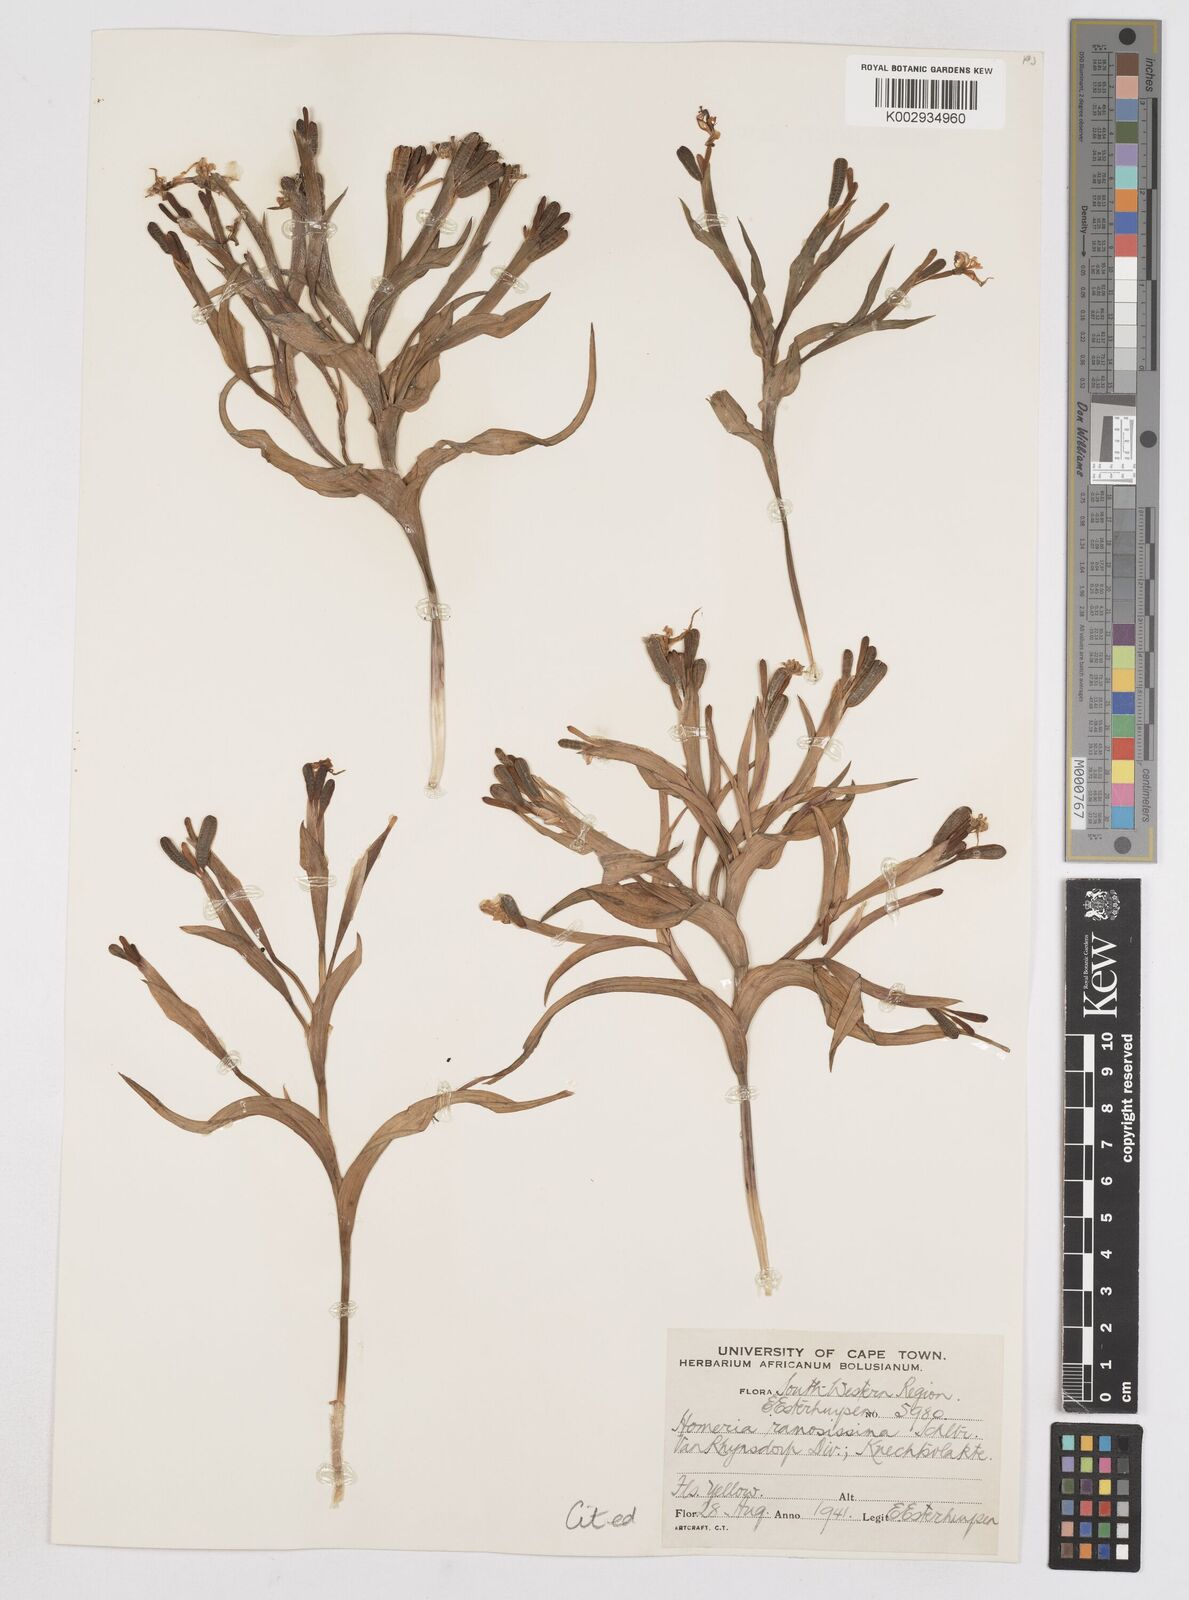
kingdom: Plantae
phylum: Tracheophyta
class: Liliopsida
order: Asparagales
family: Iridaceae
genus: Moraea
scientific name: Moraea ramosissima
